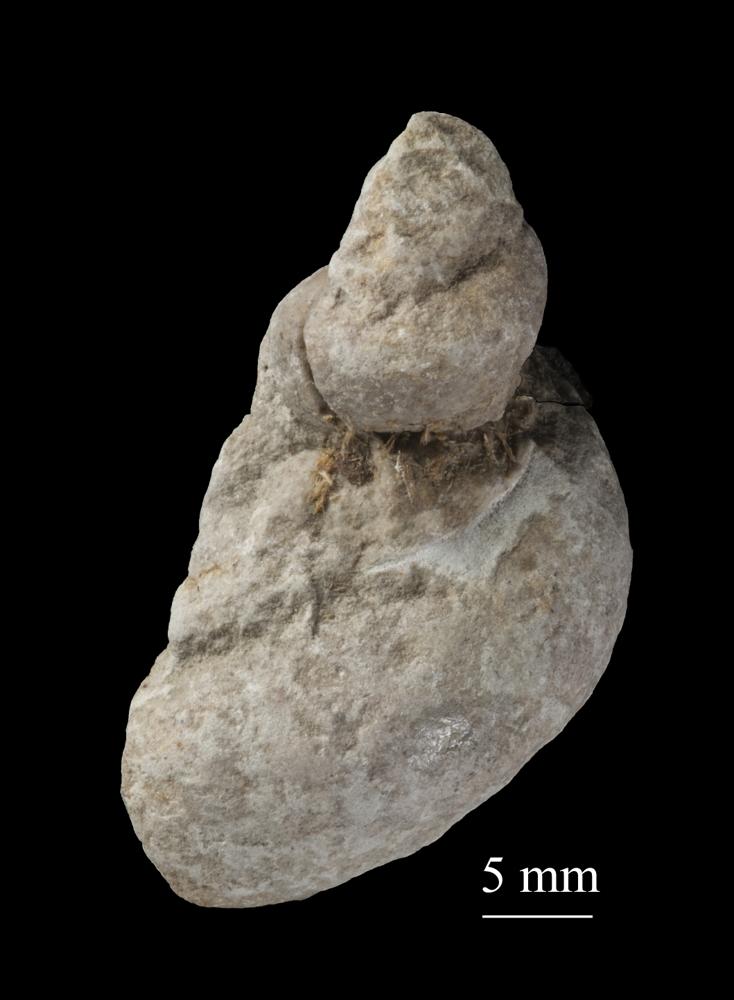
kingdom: Animalia
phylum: Mollusca
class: Gastropoda
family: Lophospiridae
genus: Loxoplocus
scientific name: Loxoplocus Worthenia vermetus
